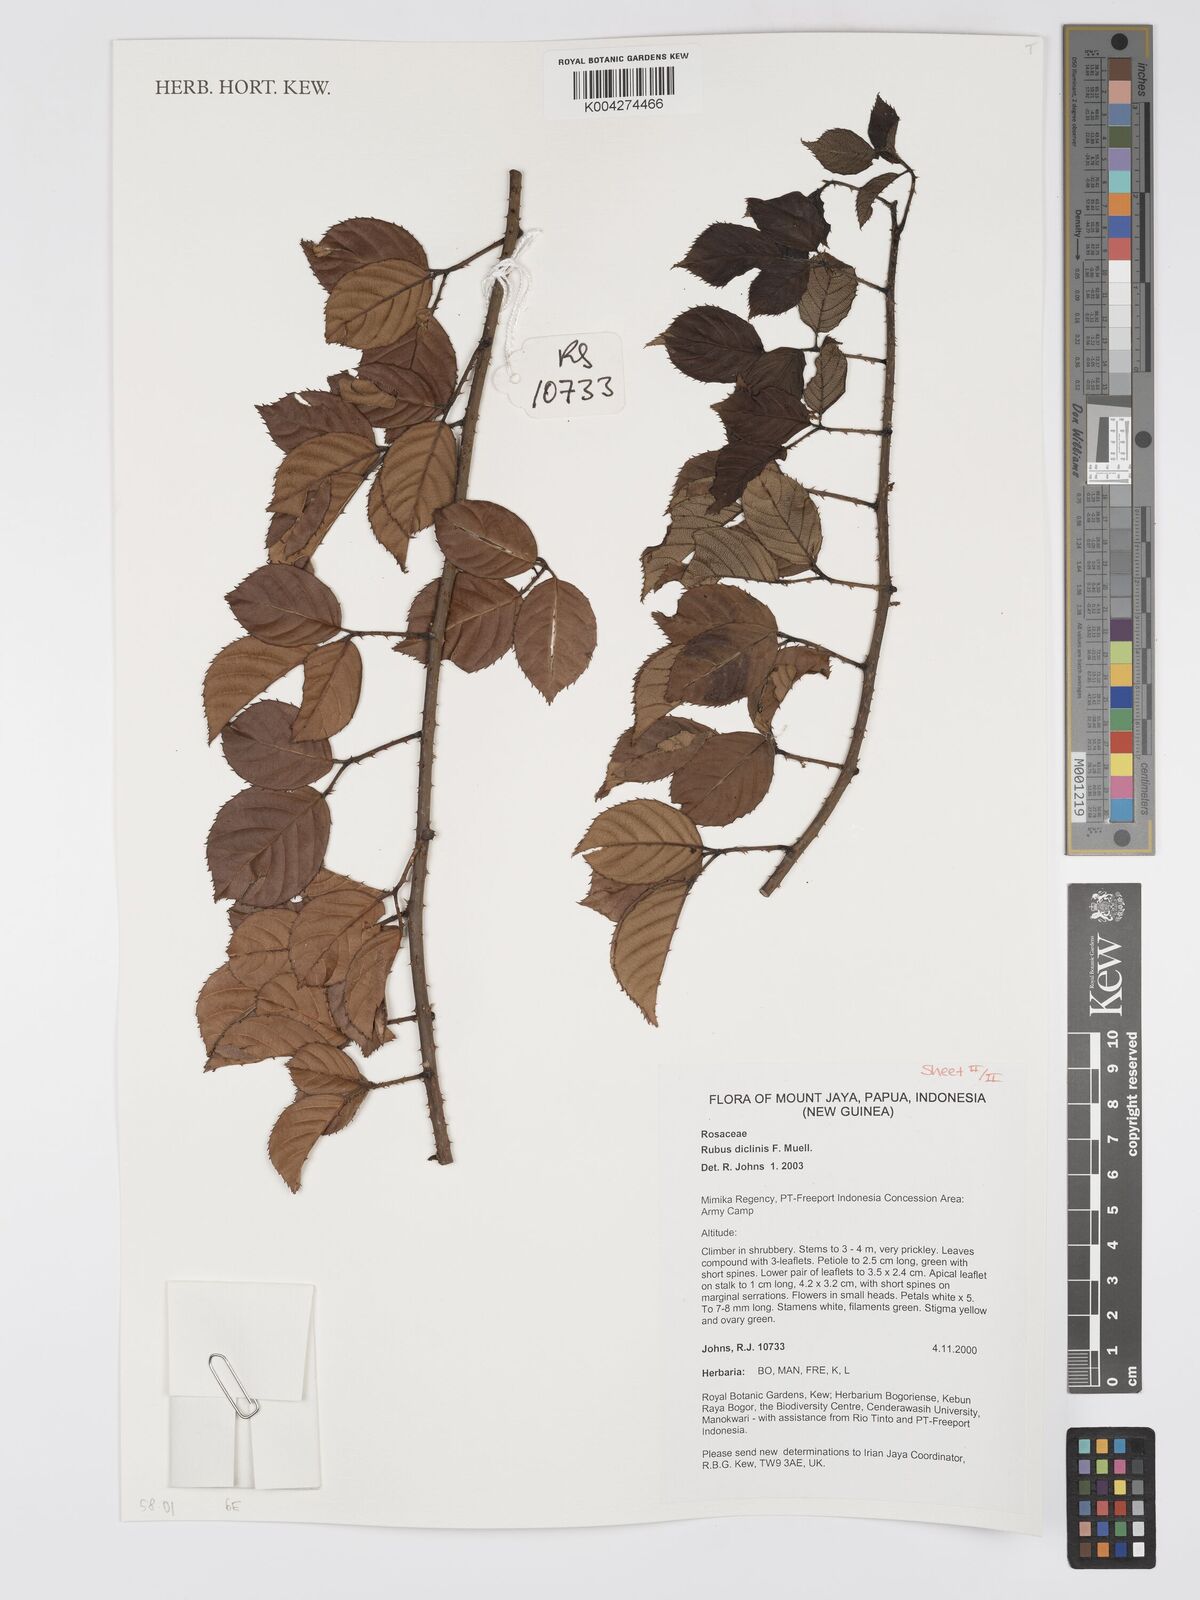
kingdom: Plantae
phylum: Tracheophyta
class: Magnoliopsida
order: Rosales
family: Rosaceae
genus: Rubus
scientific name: Rubus diclinis
